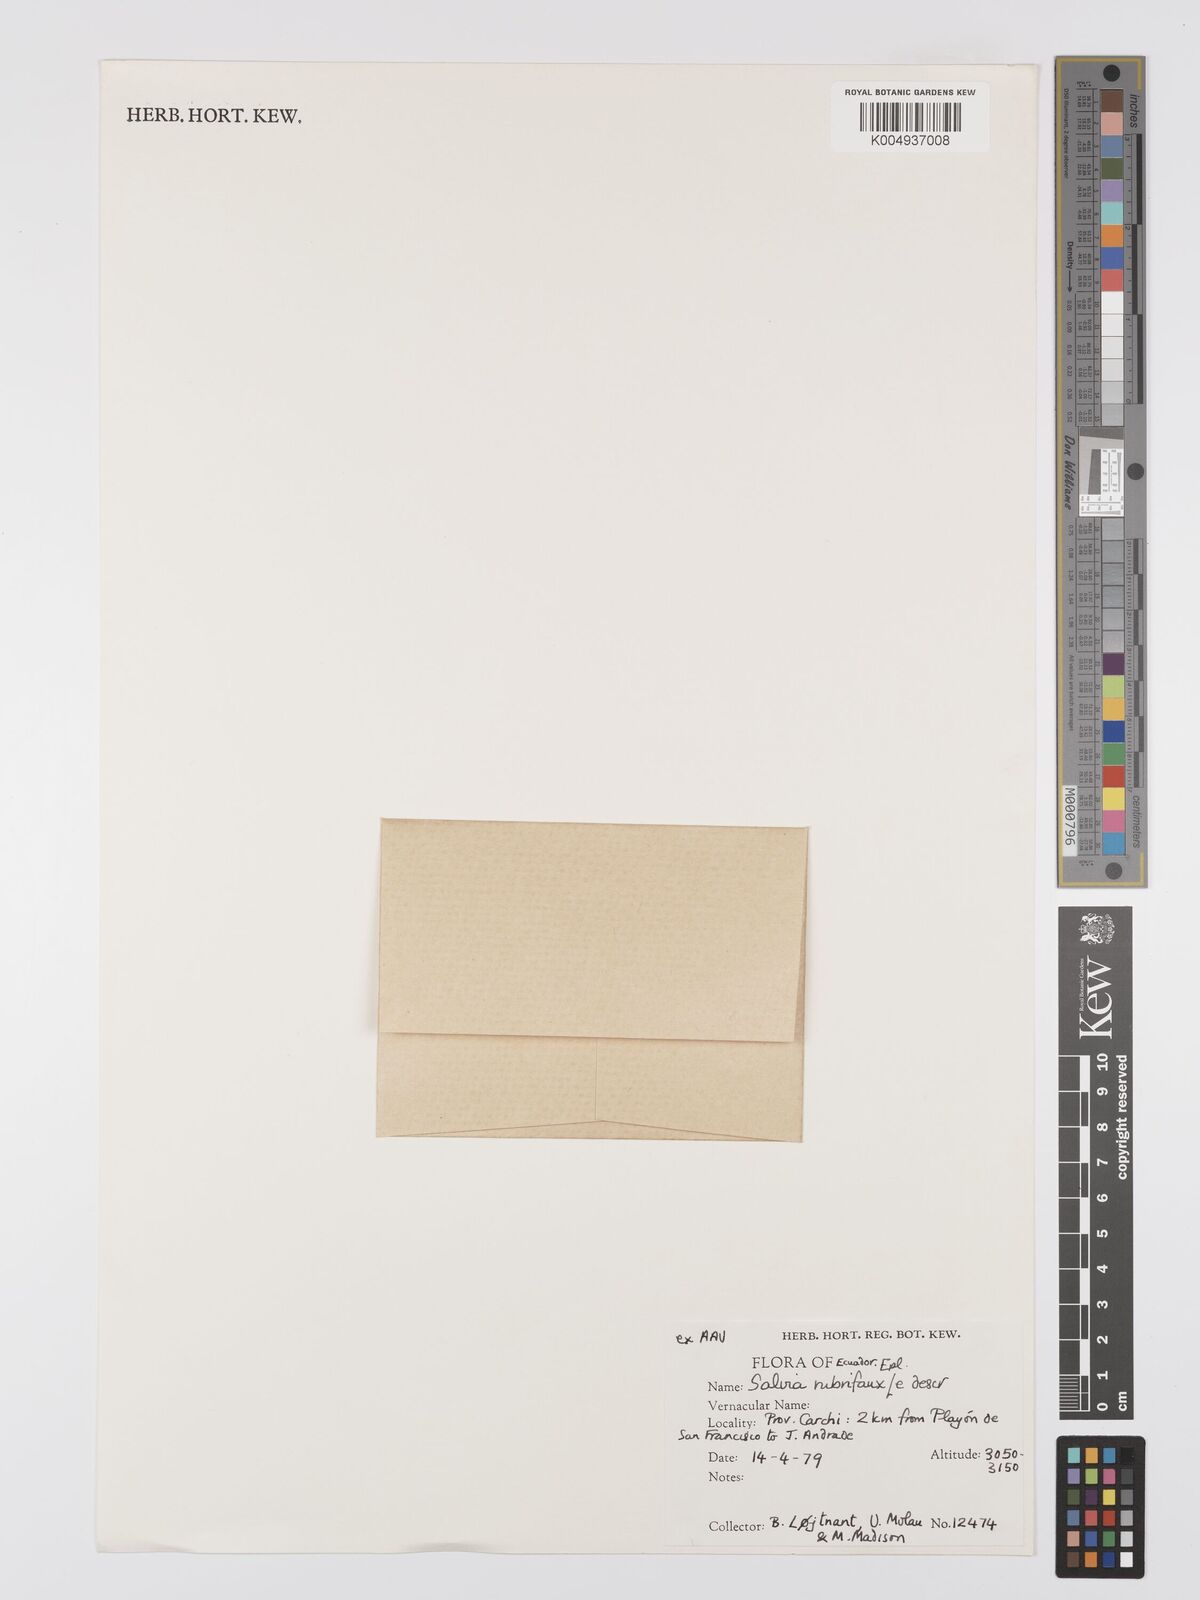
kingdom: Plantae
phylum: Tracheophyta
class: Magnoliopsida
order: Lamiales
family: Lamiaceae
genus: Salvia
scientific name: Salvia rubrifaux
